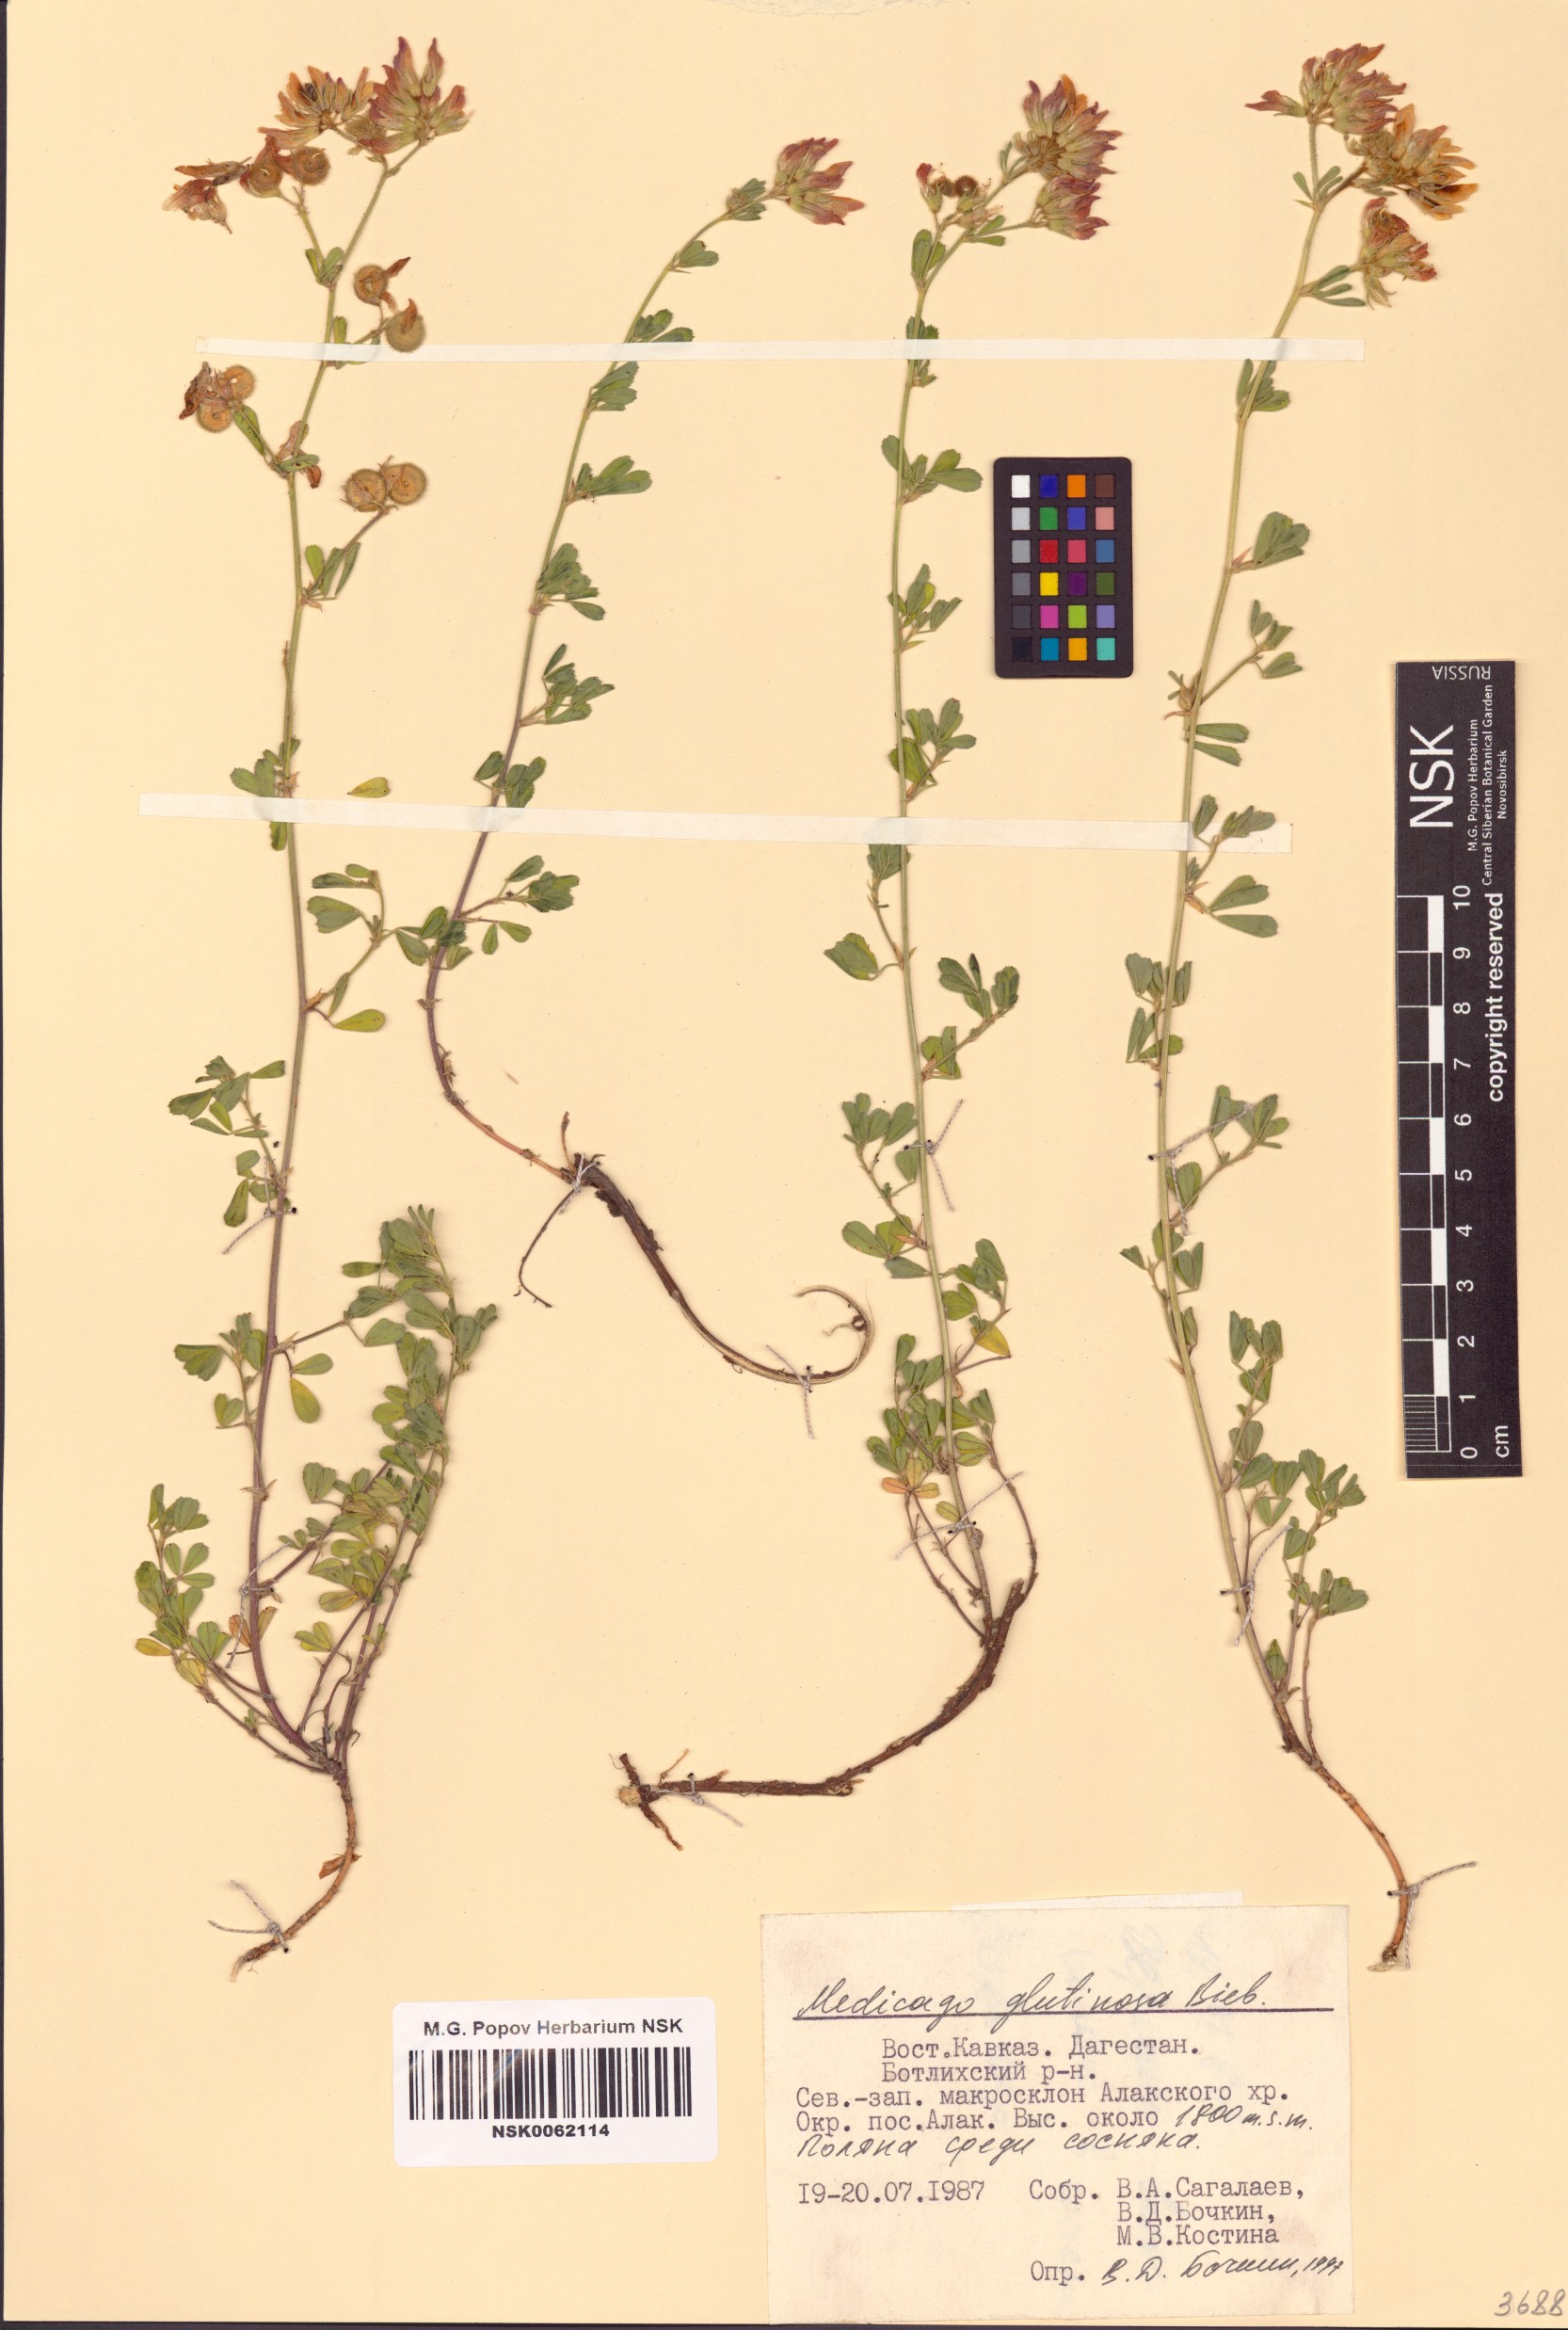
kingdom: Plantae
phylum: Tracheophyta
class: Magnoliopsida
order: Fabales
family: Fabaceae
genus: Medicago
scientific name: Medicago sativa
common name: Alfalfa
